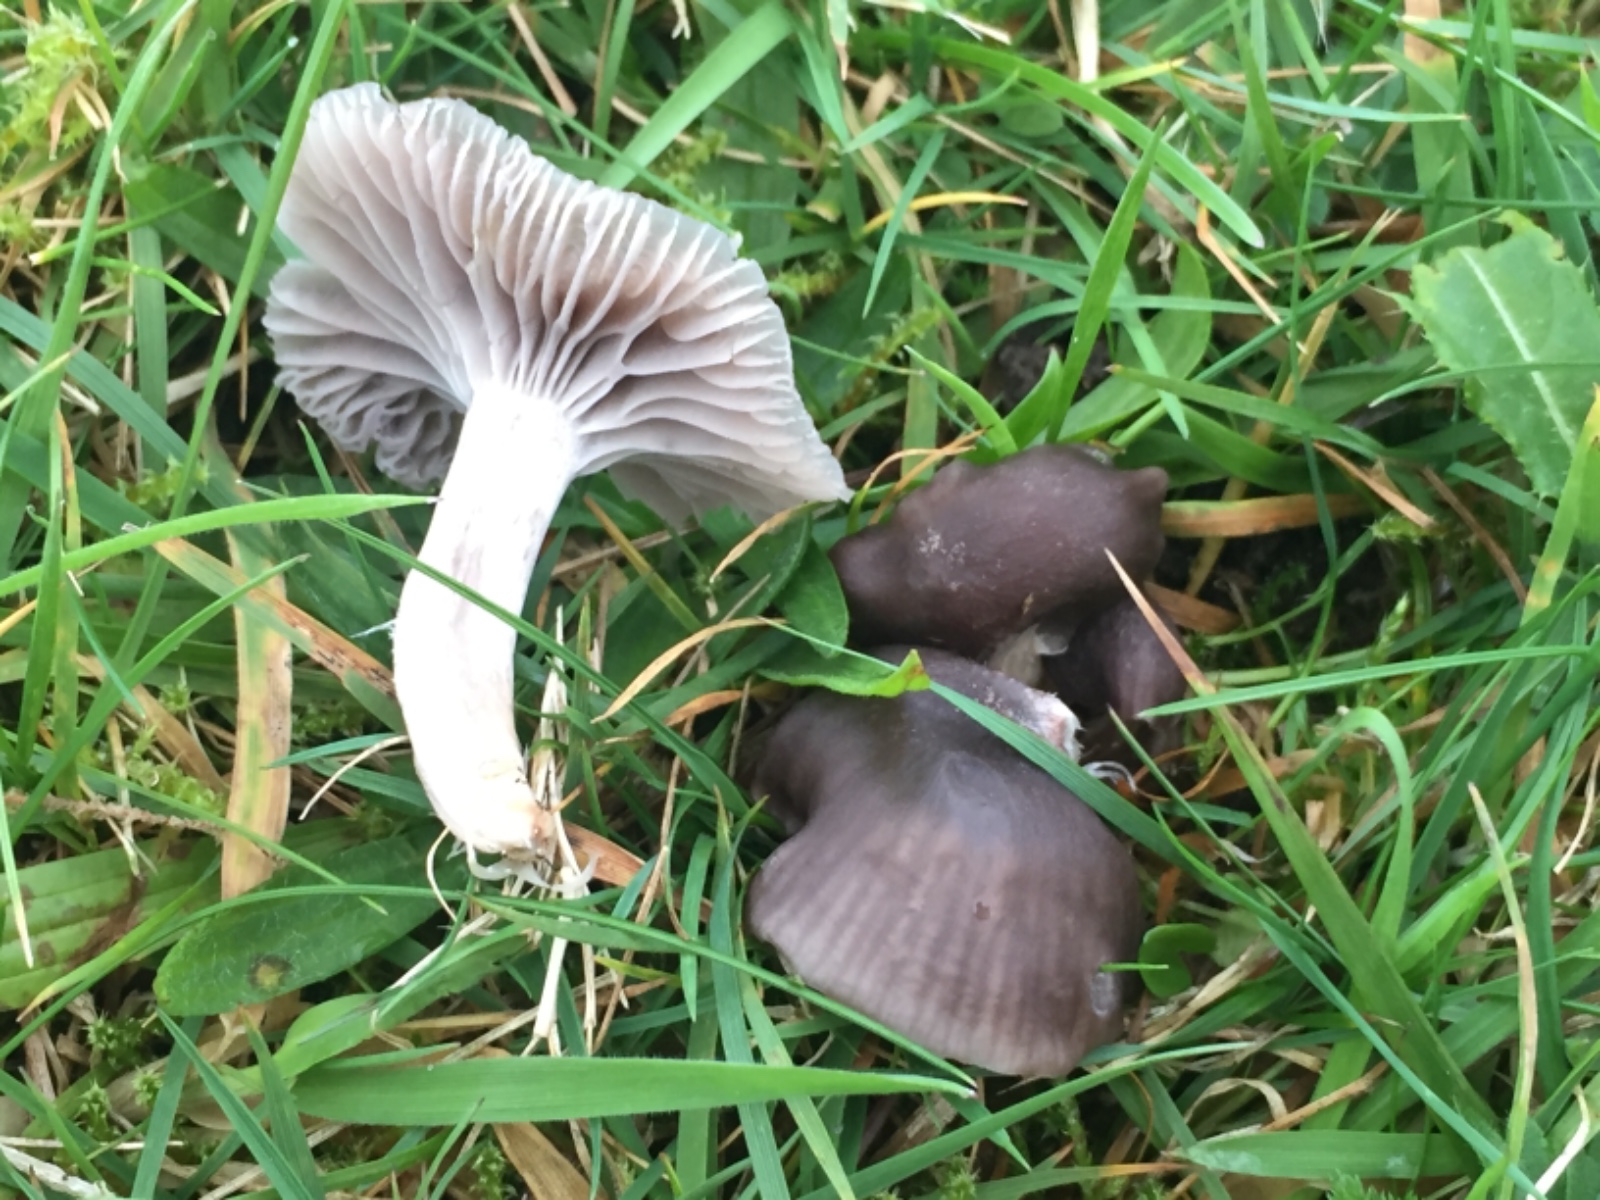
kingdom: Fungi
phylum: Basidiomycota
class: Agaricomycetes
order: Agaricales
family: Hygrophoraceae
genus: Cuphophyllus
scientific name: Cuphophyllus flavipes
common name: gulfodet vokshat
